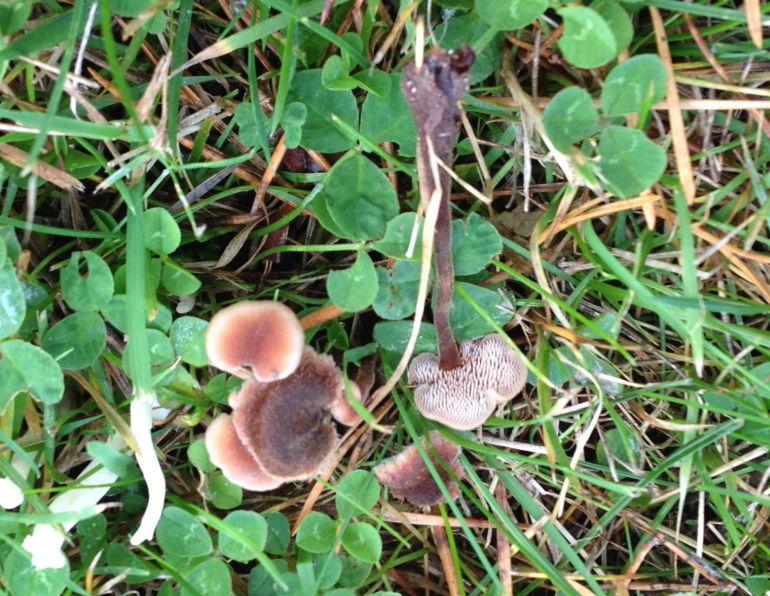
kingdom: Fungi
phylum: Basidiomycota
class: Agaricomycetes
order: Russulales
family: Auriscalpiaceae
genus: Auriscalpium
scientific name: Auriscalpium vulgare
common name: koglepigsvamp
